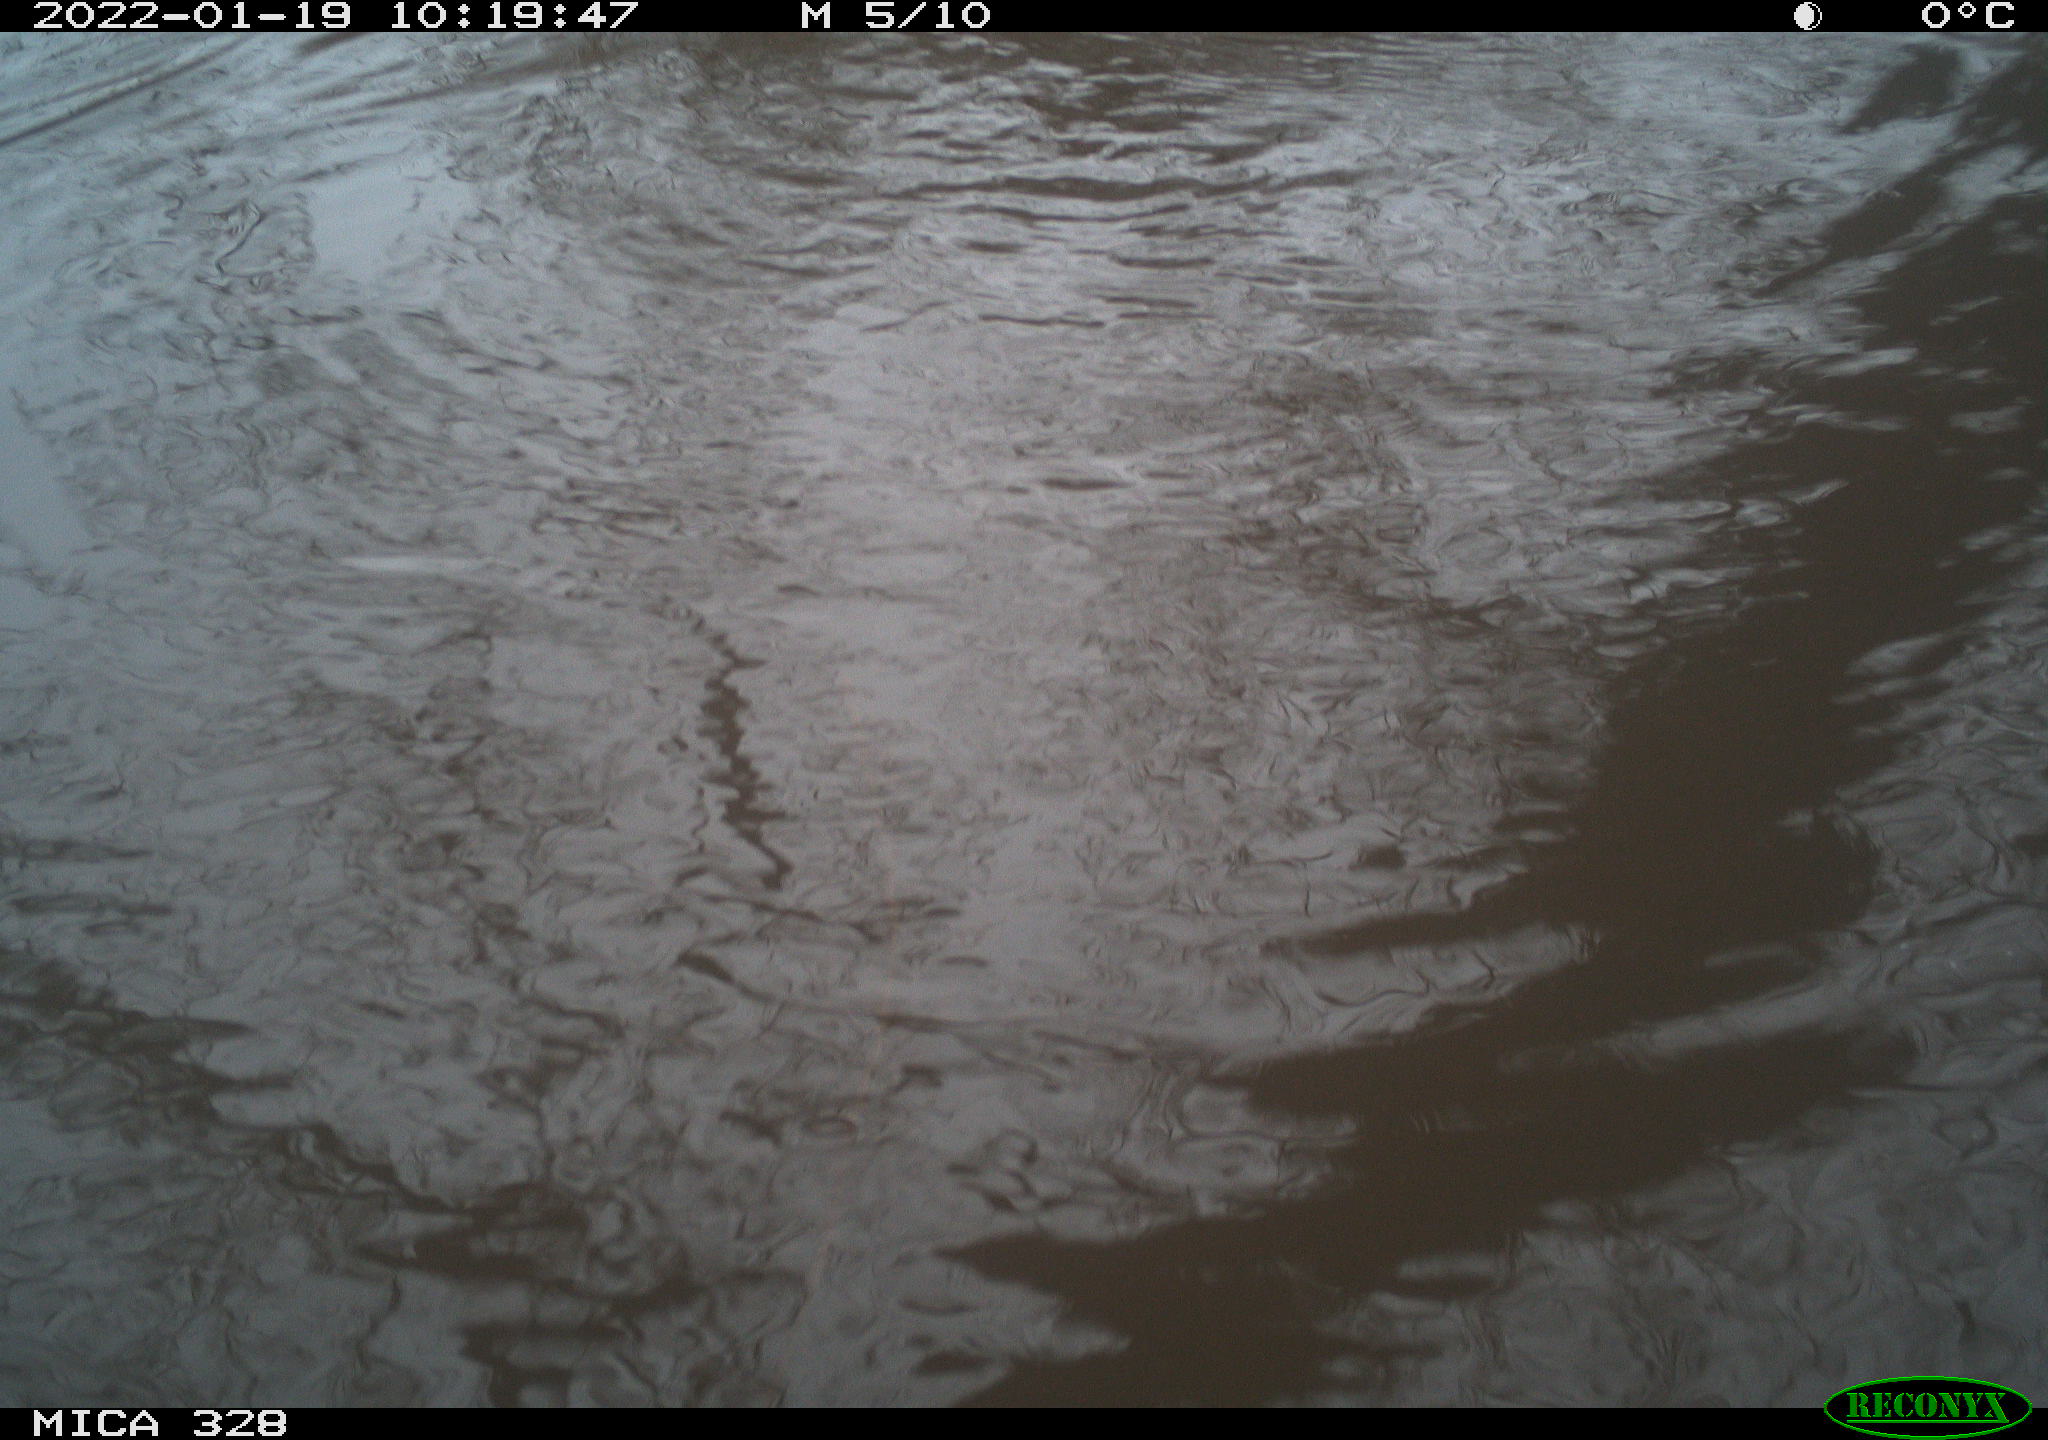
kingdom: Animalia
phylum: Chordata
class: Mammalia
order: Rodentia
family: Cricetidae
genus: Ondatra
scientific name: Ondatra zibethicus
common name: Muskrat
